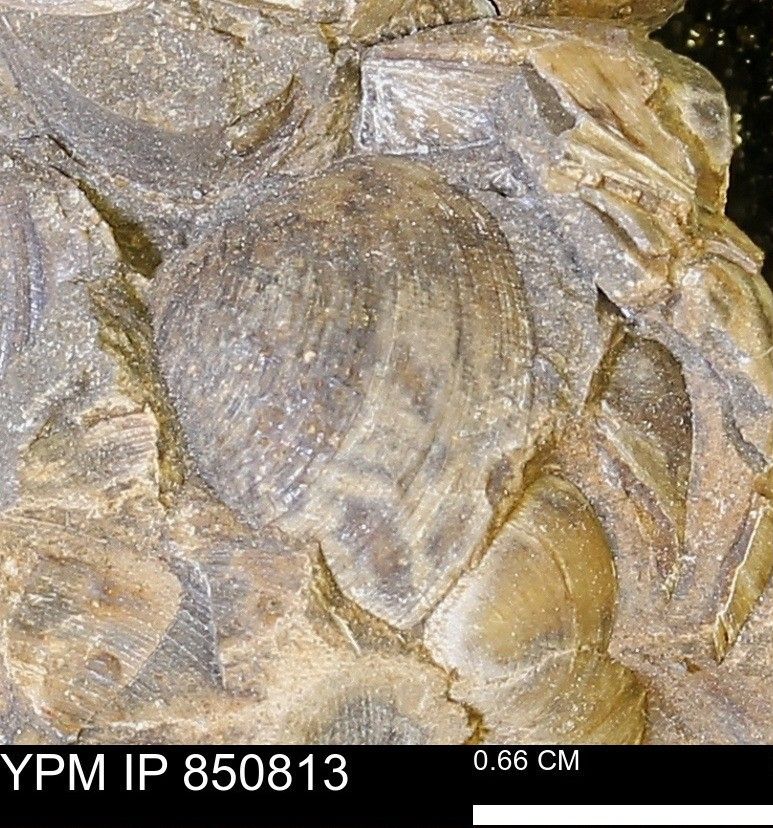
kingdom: Animalia
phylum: Mollusca
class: Bivalvia
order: Arcida
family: Limopsidae
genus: Limopsis
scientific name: Limopsis
